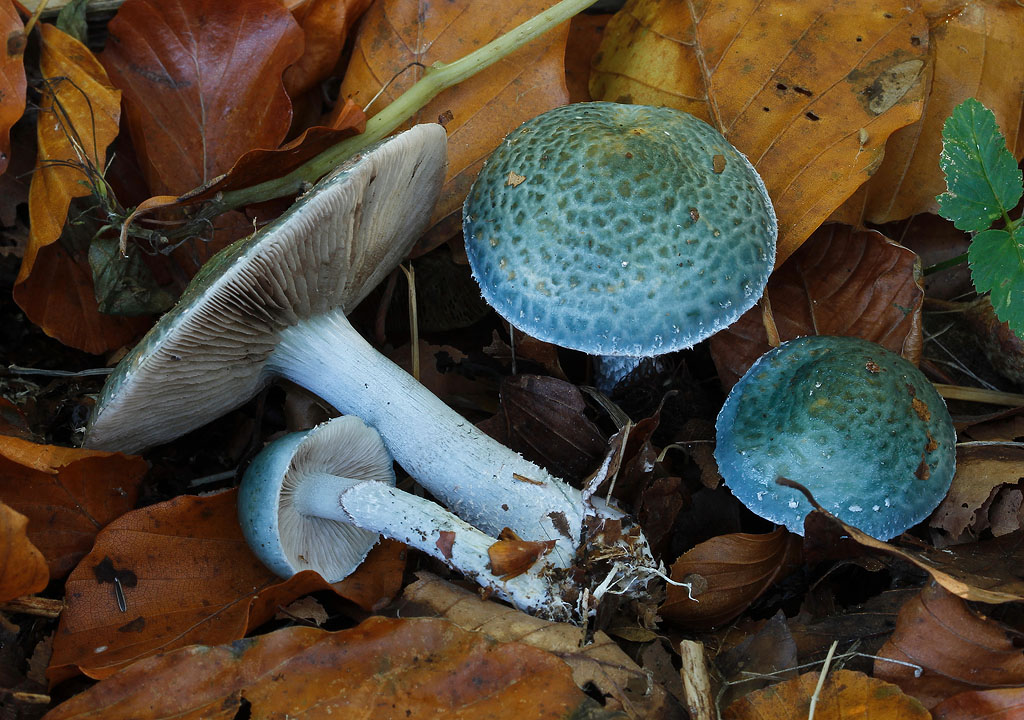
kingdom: Fungi
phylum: Basidiomycota
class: Agaricomycetes
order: Agaricales
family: Strophariaceae
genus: Stropharia
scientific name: Stropharia cyanea
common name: blågrøn bredblad
